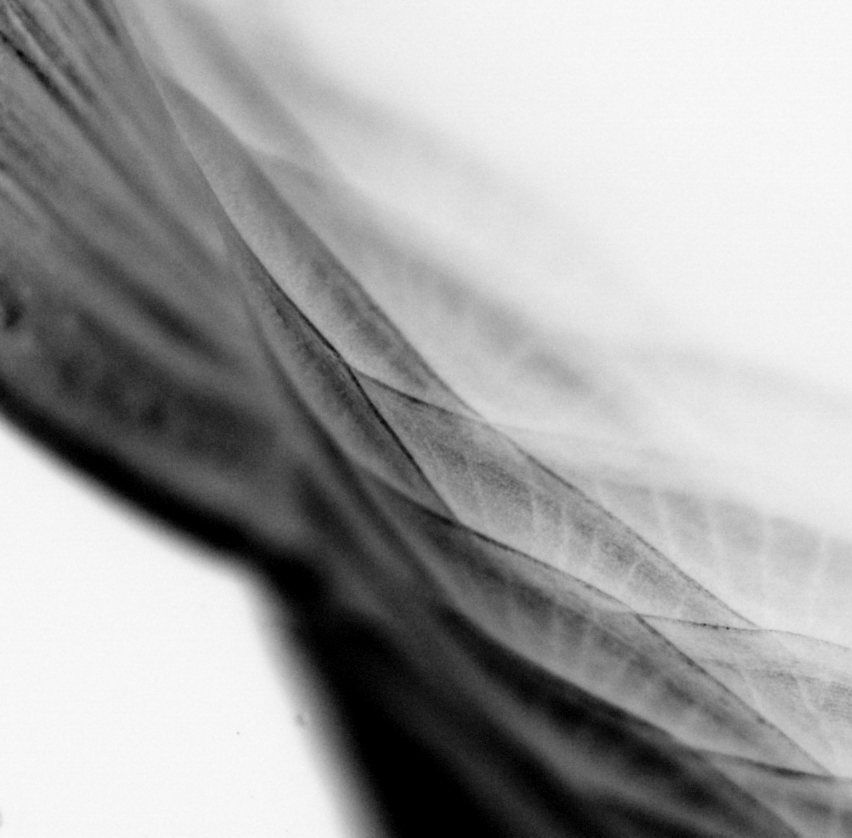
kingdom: Animalia
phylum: Chordata
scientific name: Chordata
